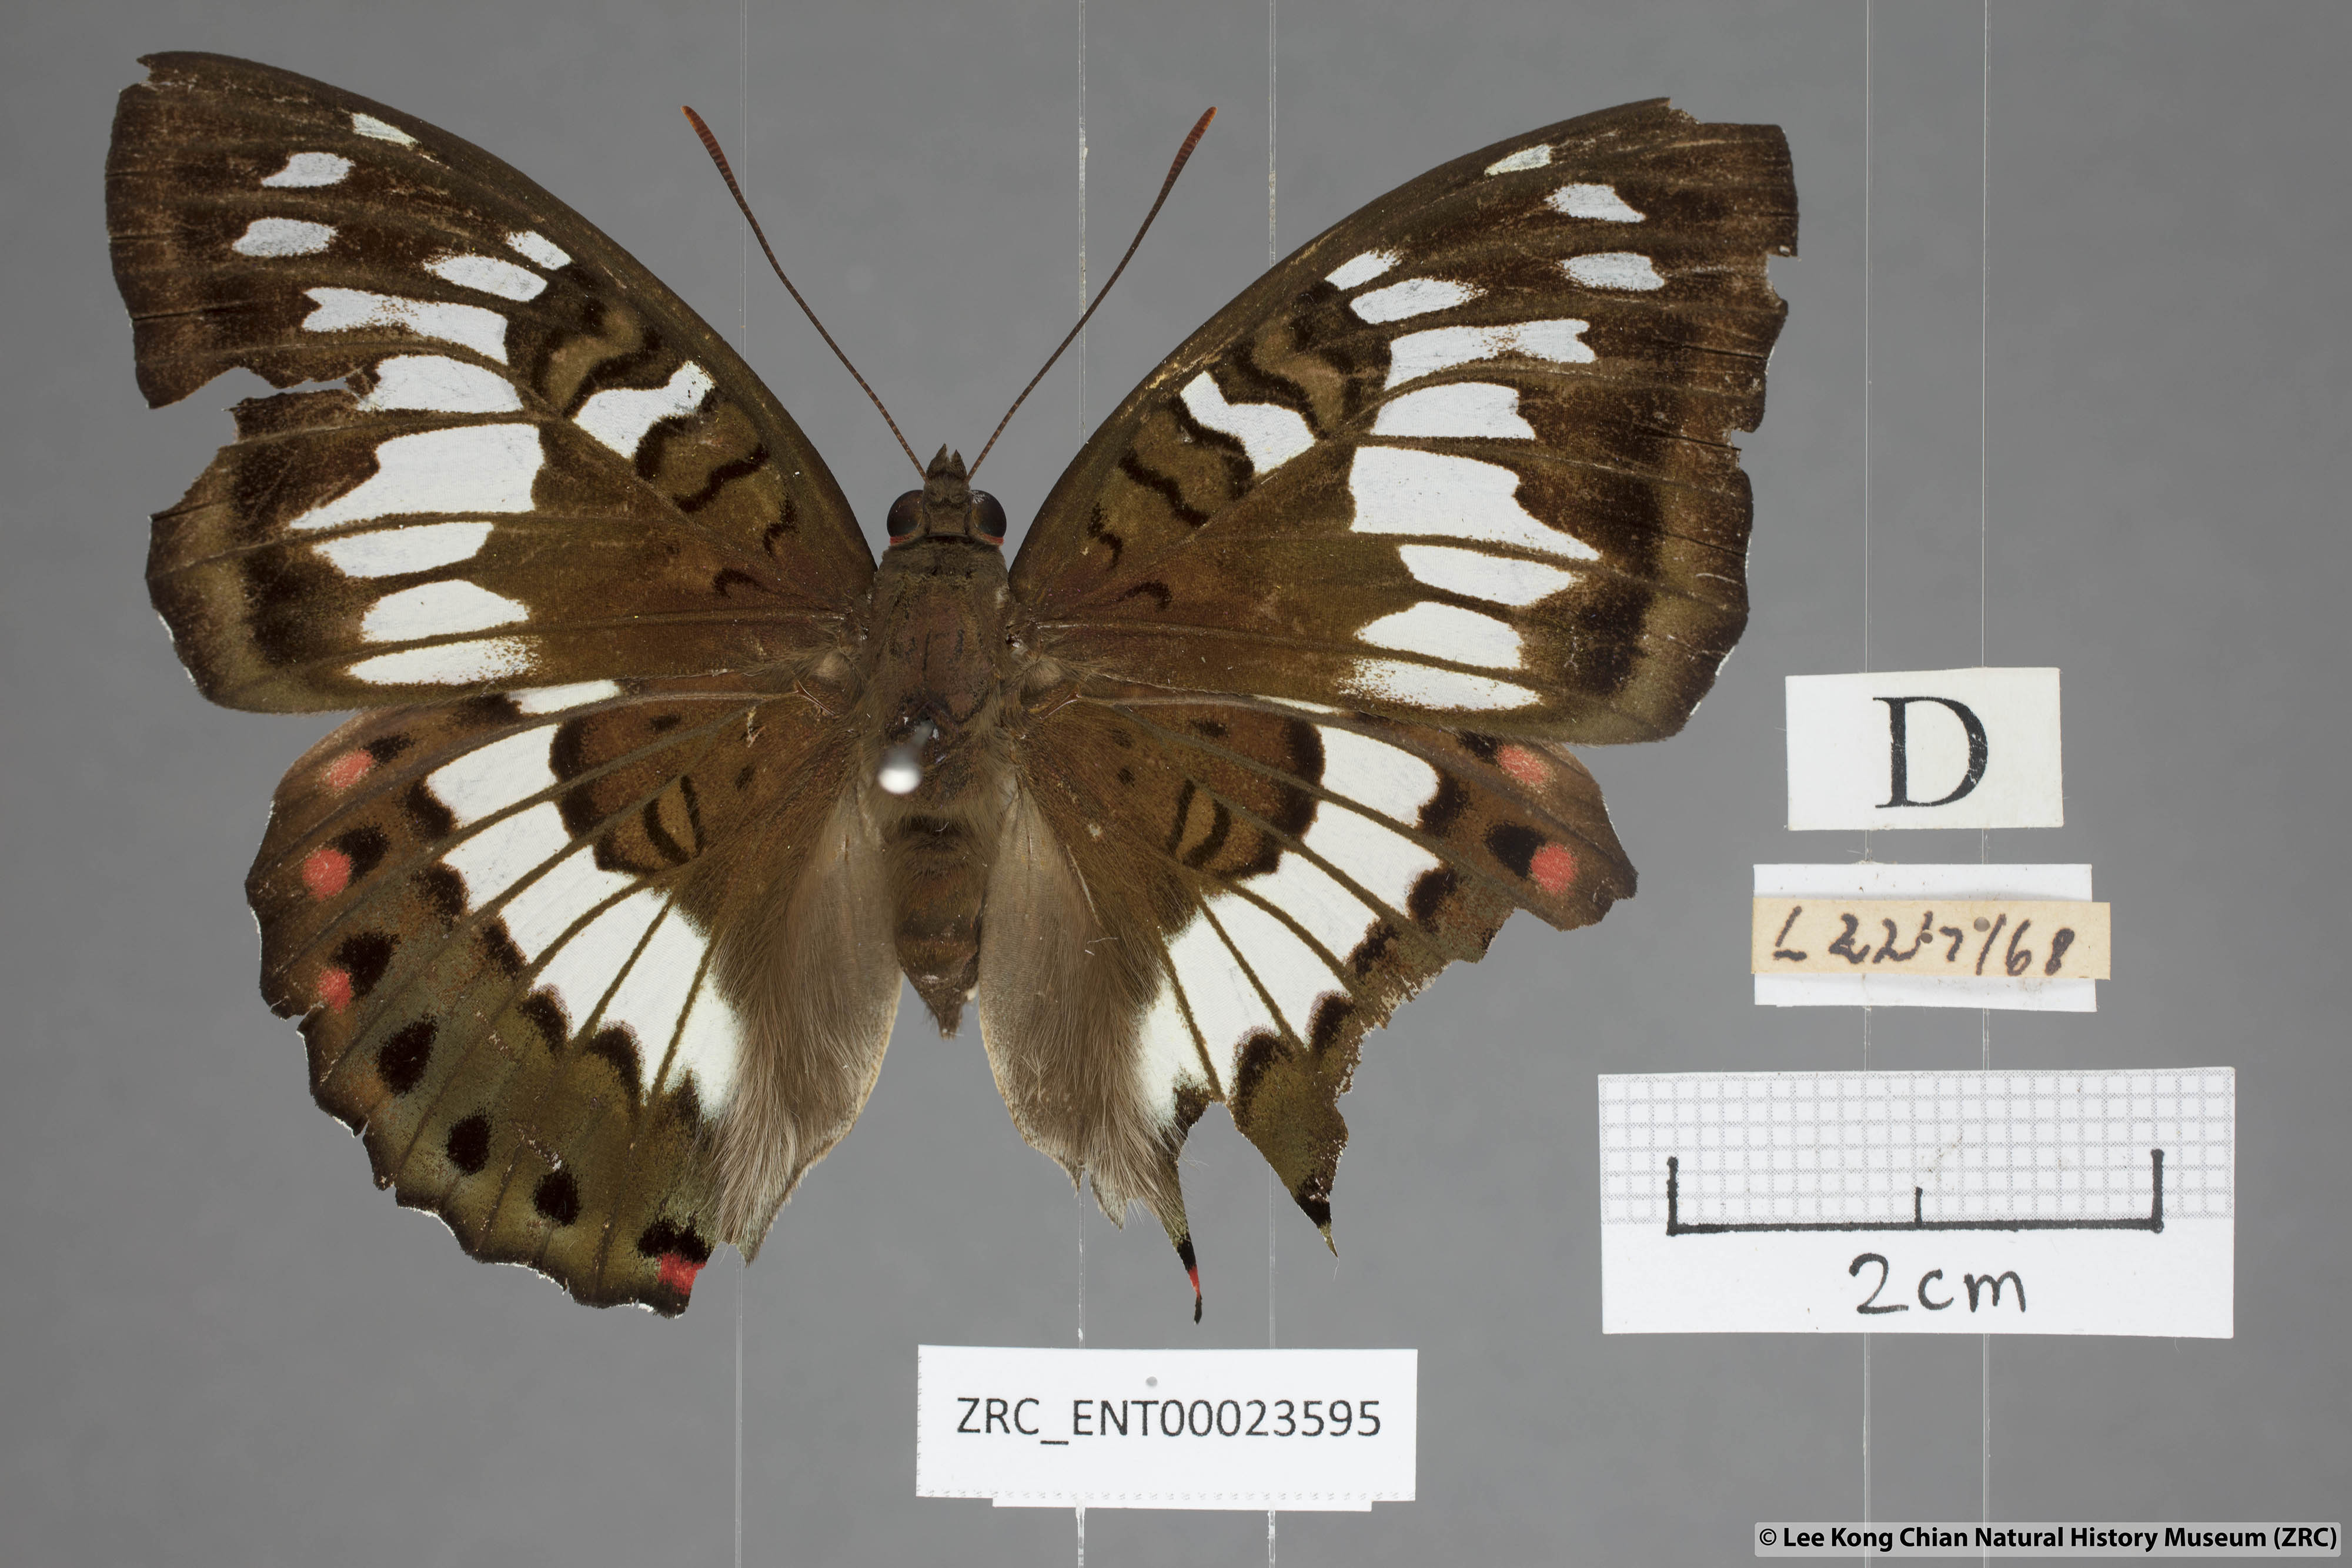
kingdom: Animalia
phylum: Arthropoda
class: Insecta
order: Lepidoptera
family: Nymphalidae
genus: Euthalia
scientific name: Euthalia adonia
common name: Green baron
